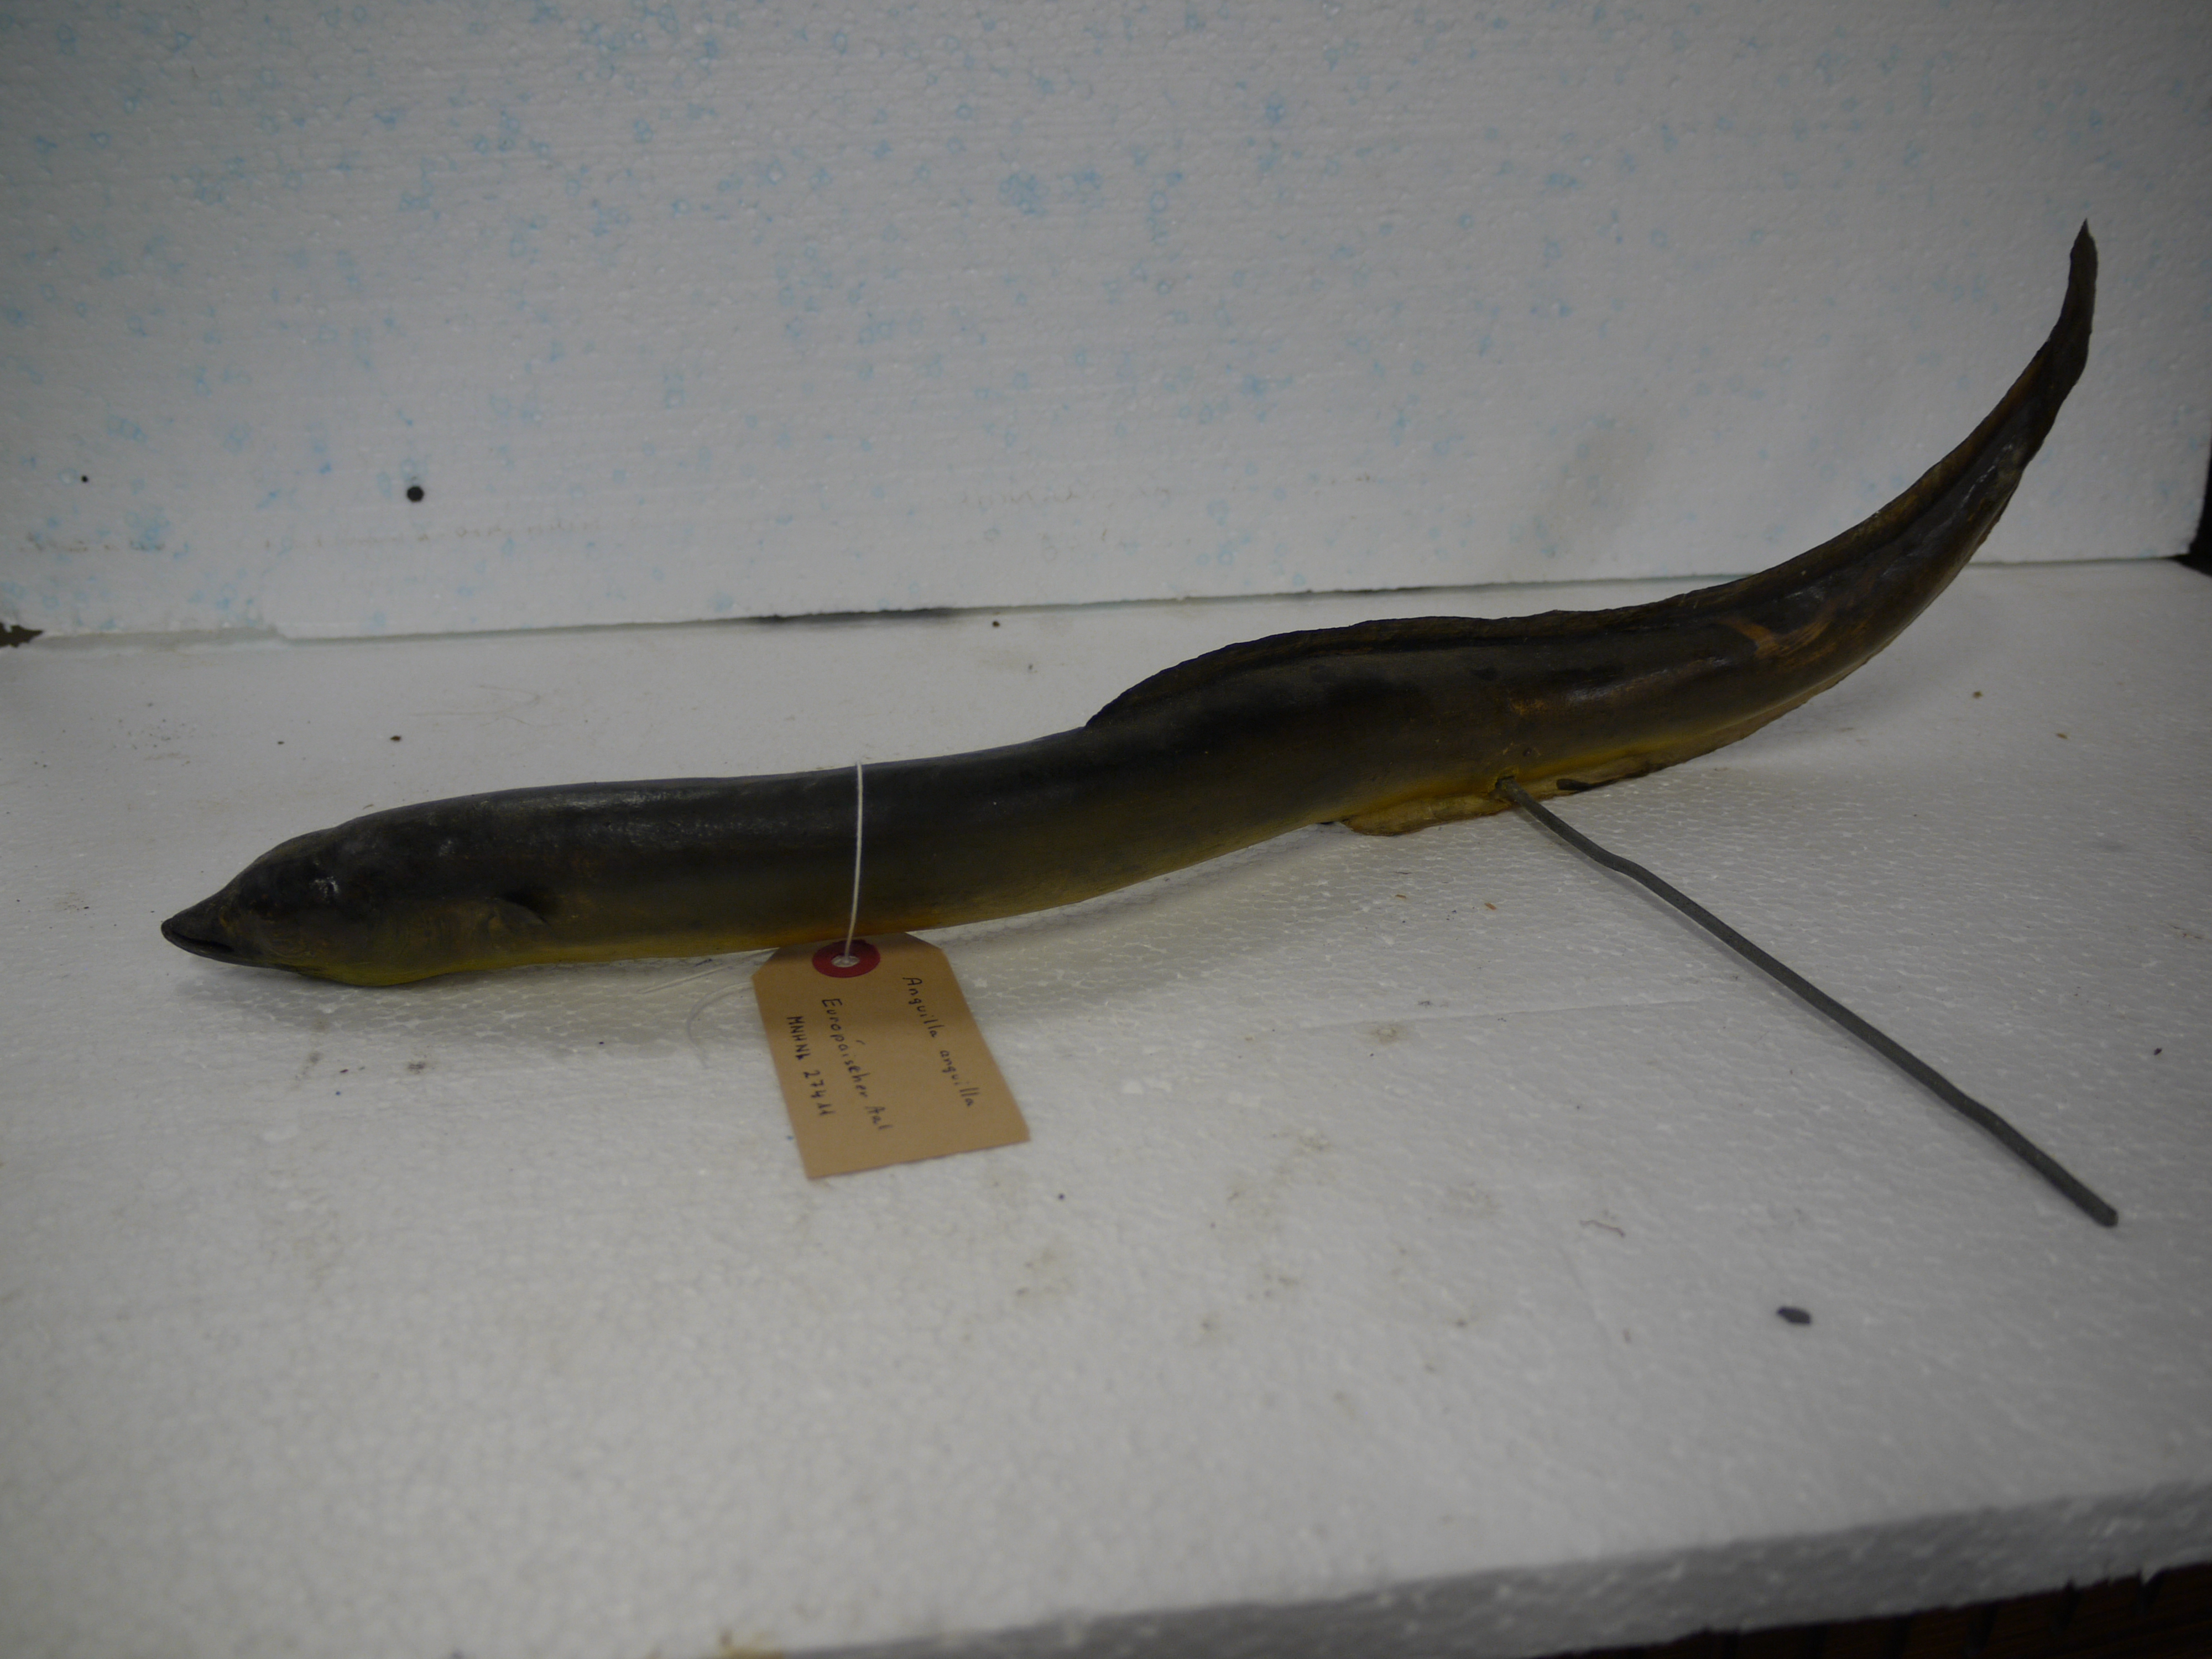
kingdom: Animalia
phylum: Chordata
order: Anguilliformes
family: Anguillidae
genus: Anguilla
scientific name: Anguilla anguilla
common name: European eel
